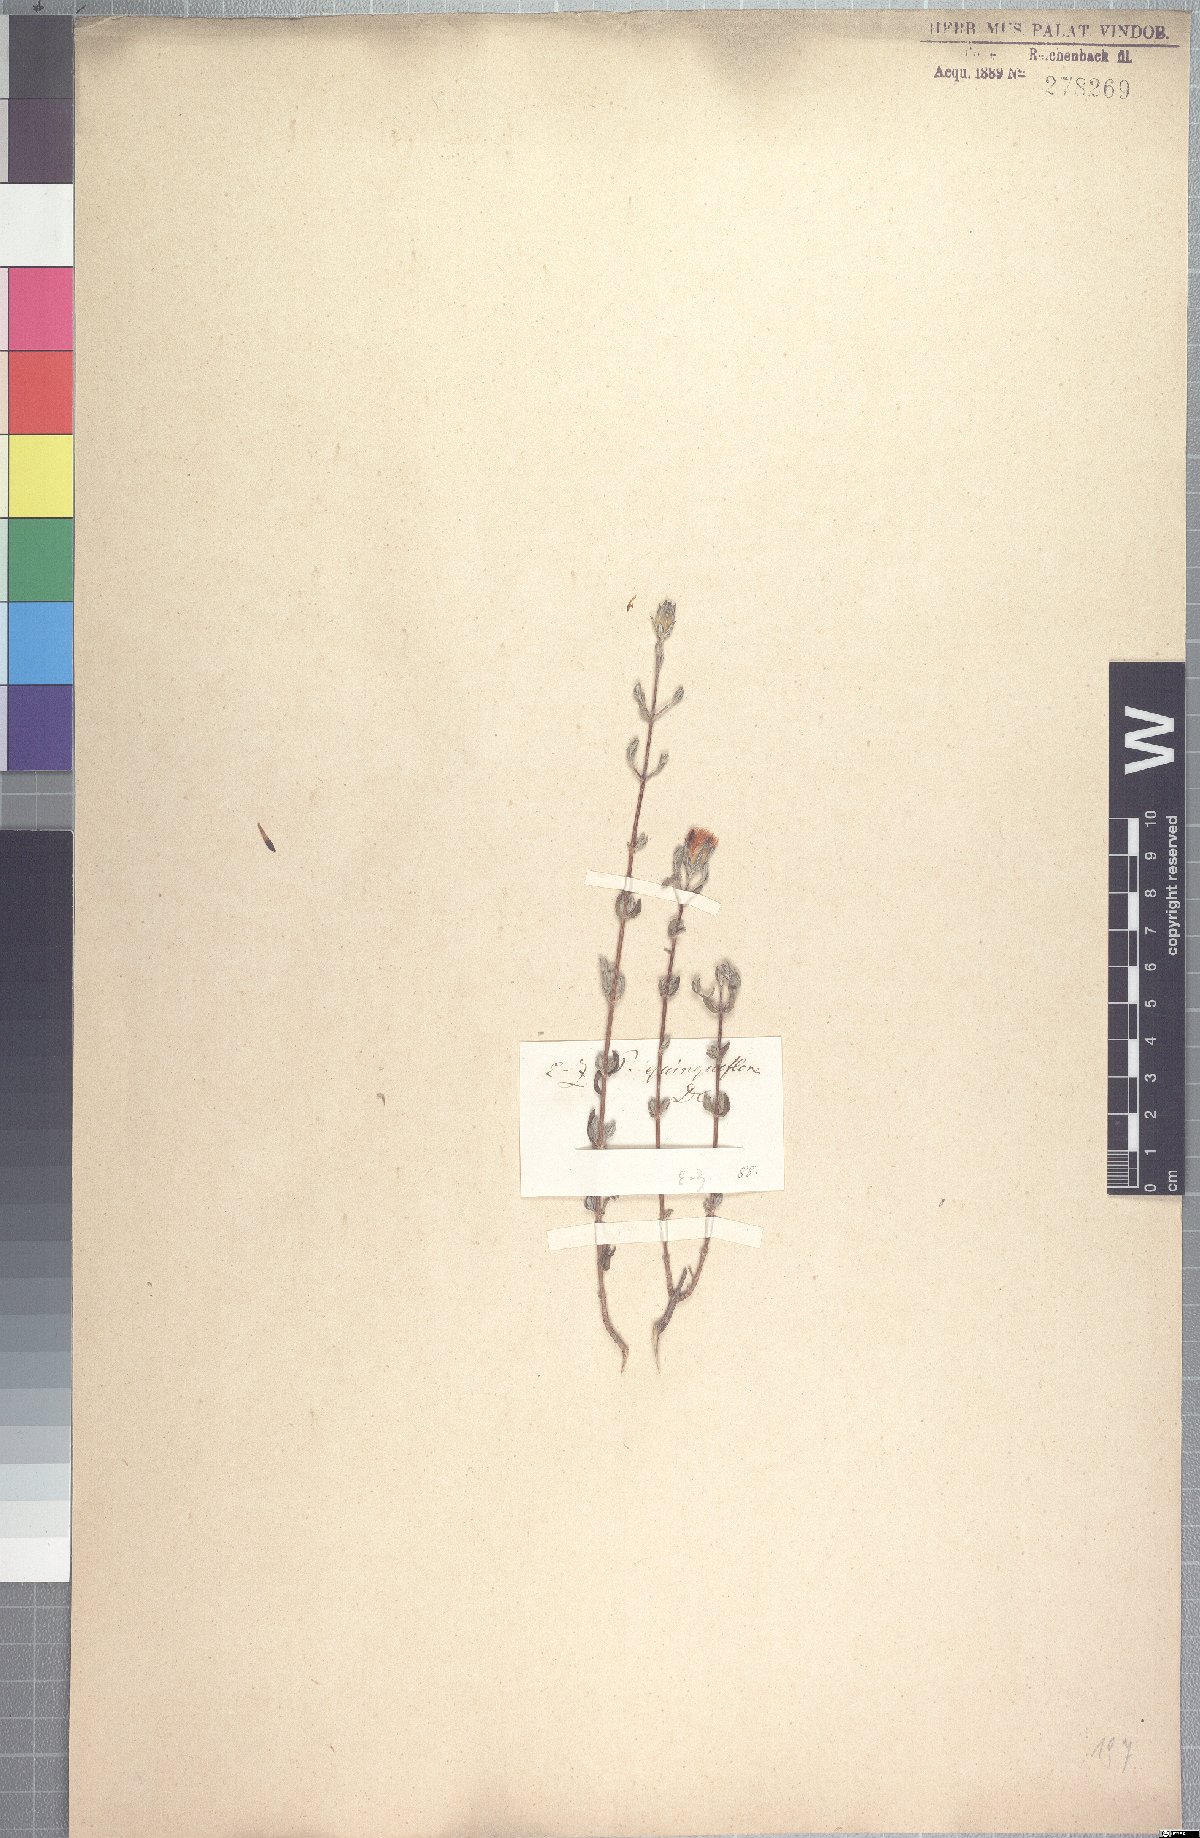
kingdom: Plantae
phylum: Tracheophyta
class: Magnoliopsida
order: Asterales
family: Asteraceae
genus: Pteronia
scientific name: Pteronia quinqueflora
